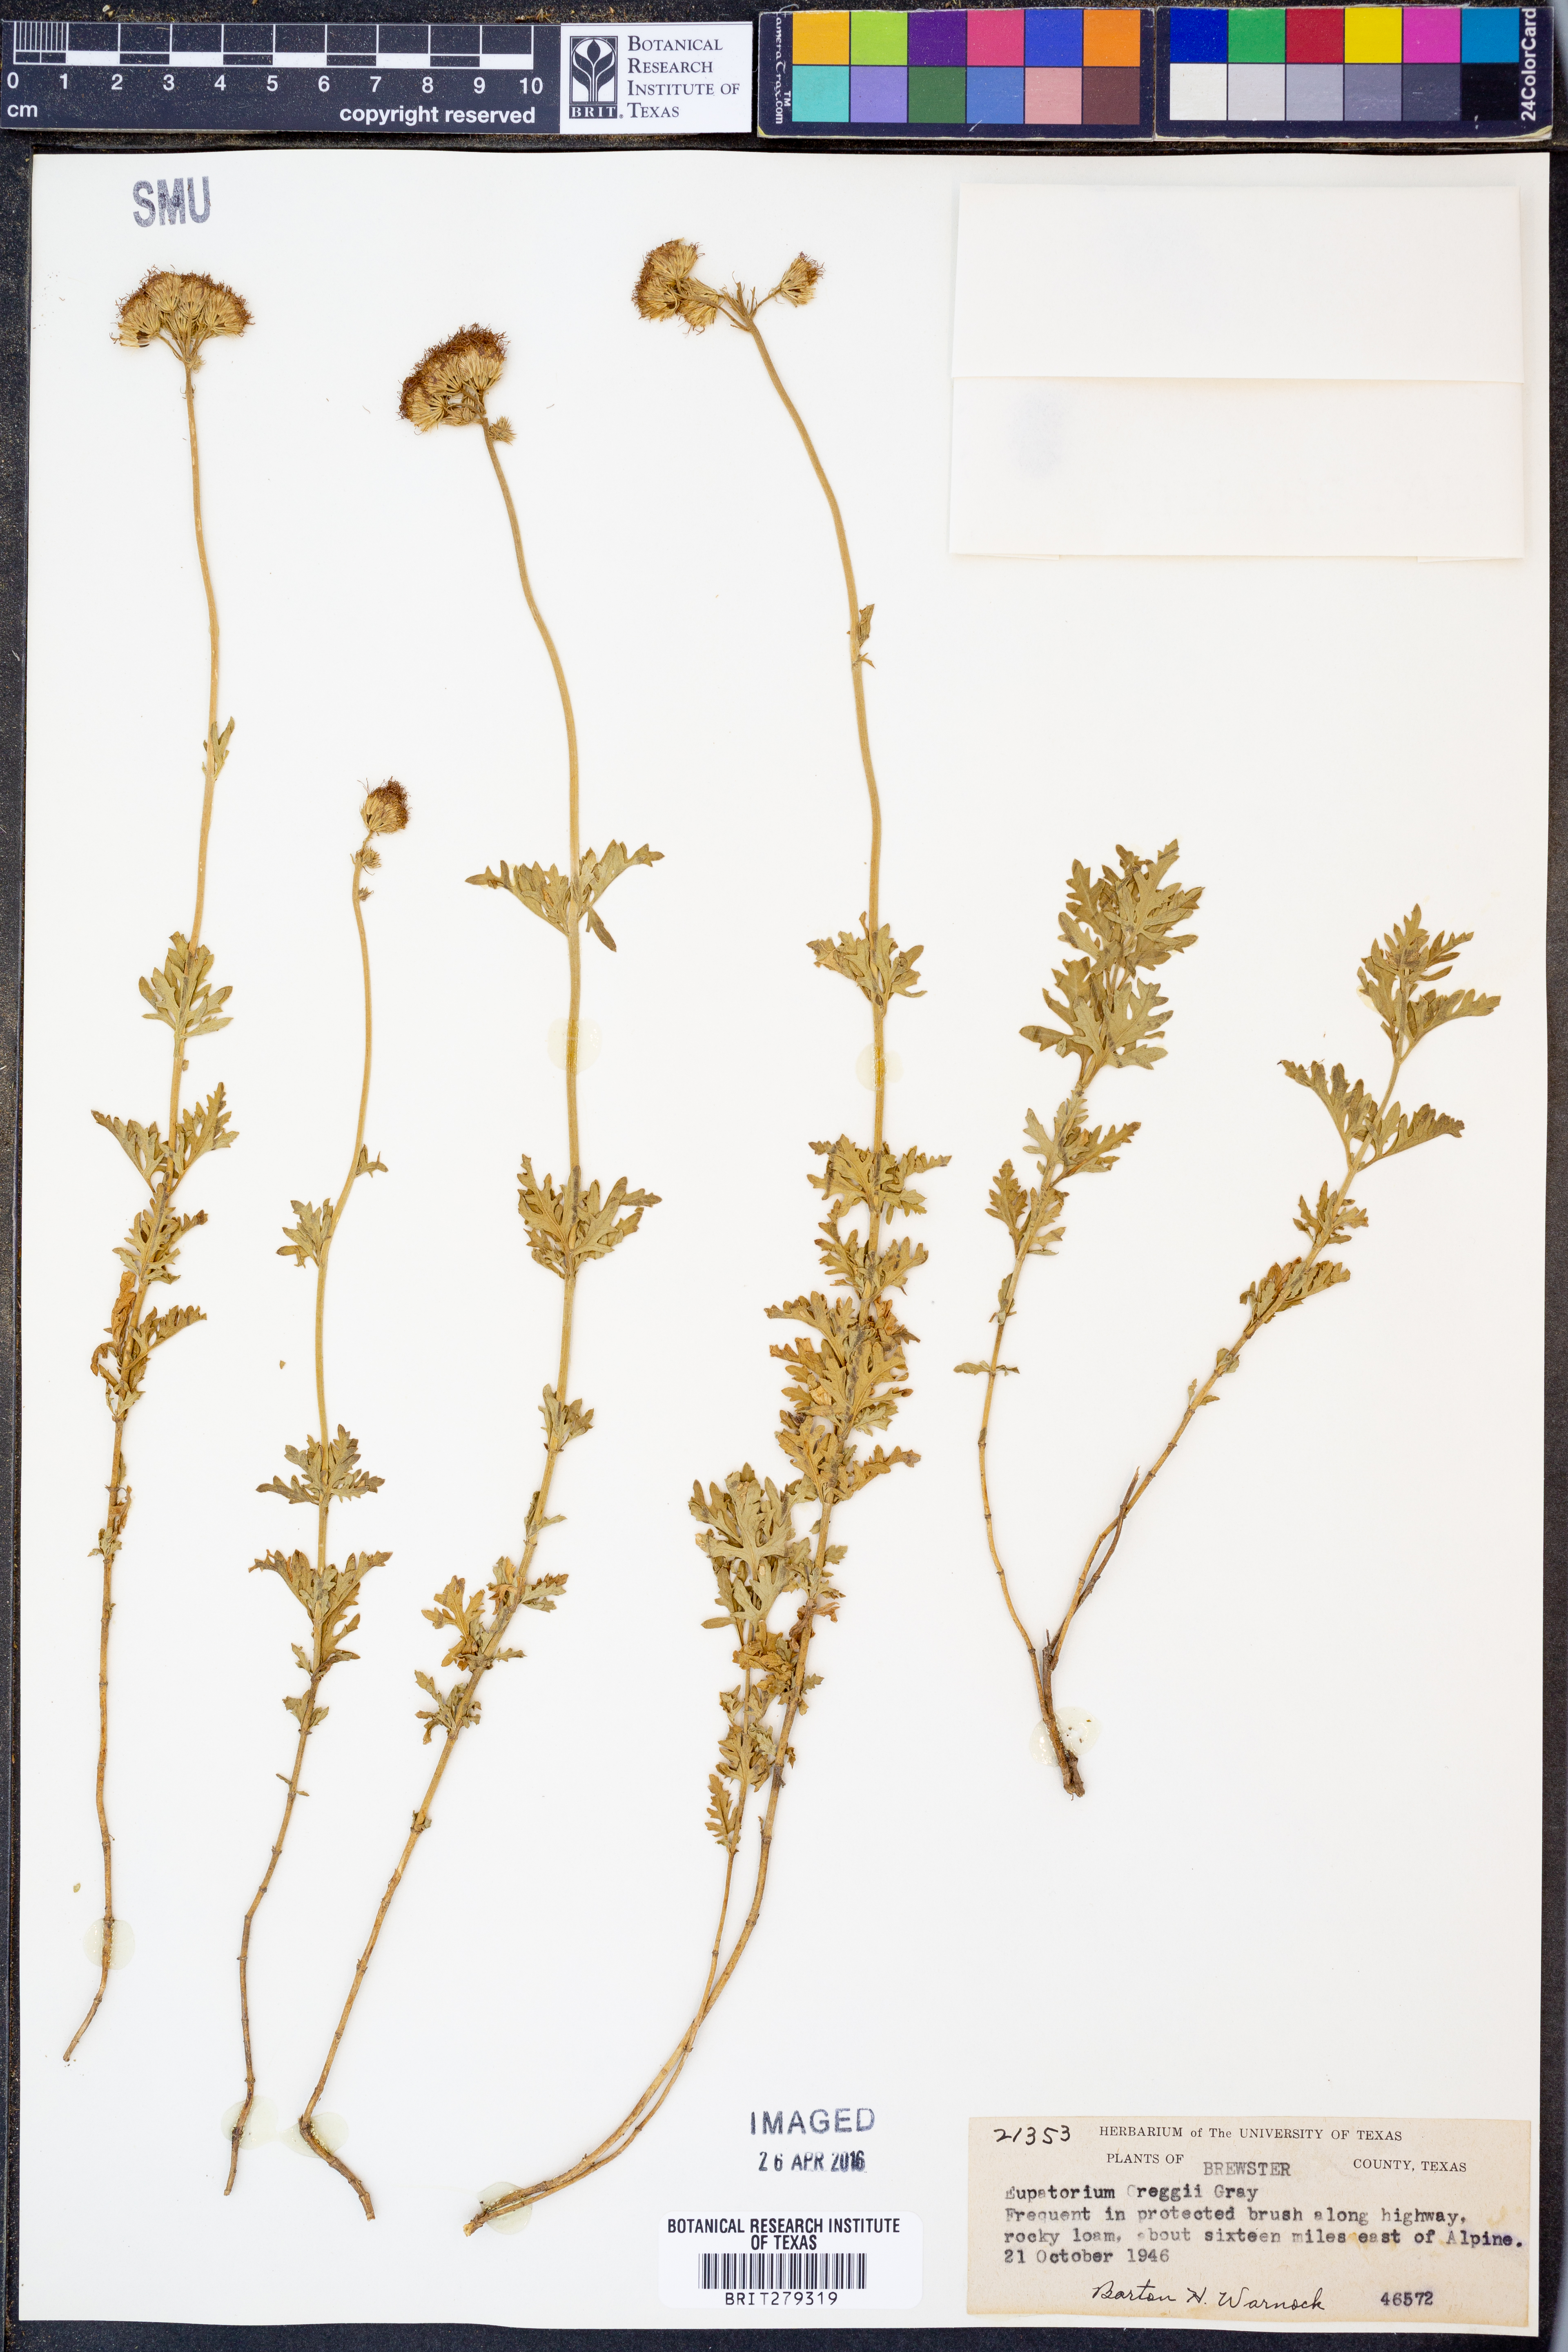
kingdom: Plantae
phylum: Tracheophyta
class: Magnoliopsida
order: Asterales
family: Asteraceae
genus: Conoclinium
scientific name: Conoclinium dissectum
